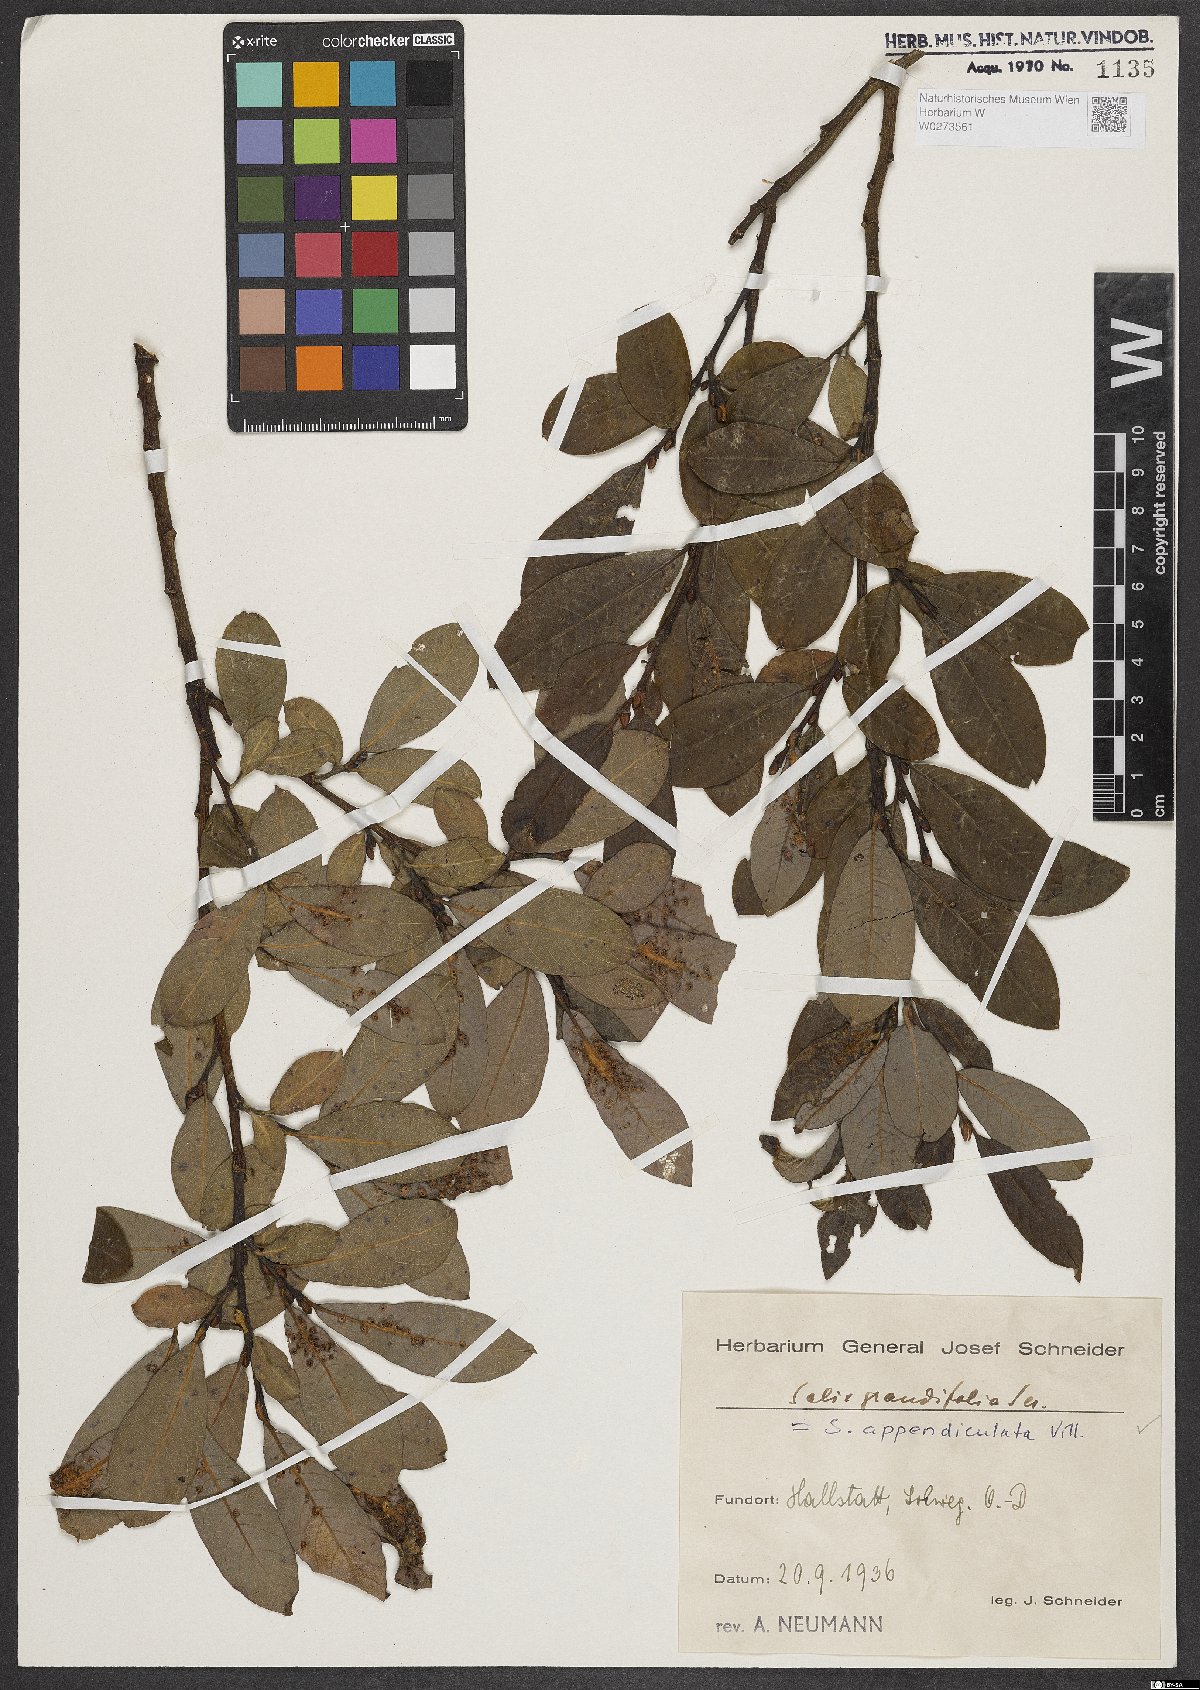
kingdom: Plantae
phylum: Tracheophyta
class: Magnoliopsida
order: Malpighiales
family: Salicaceae
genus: Salix
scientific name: Salix appendiculata
